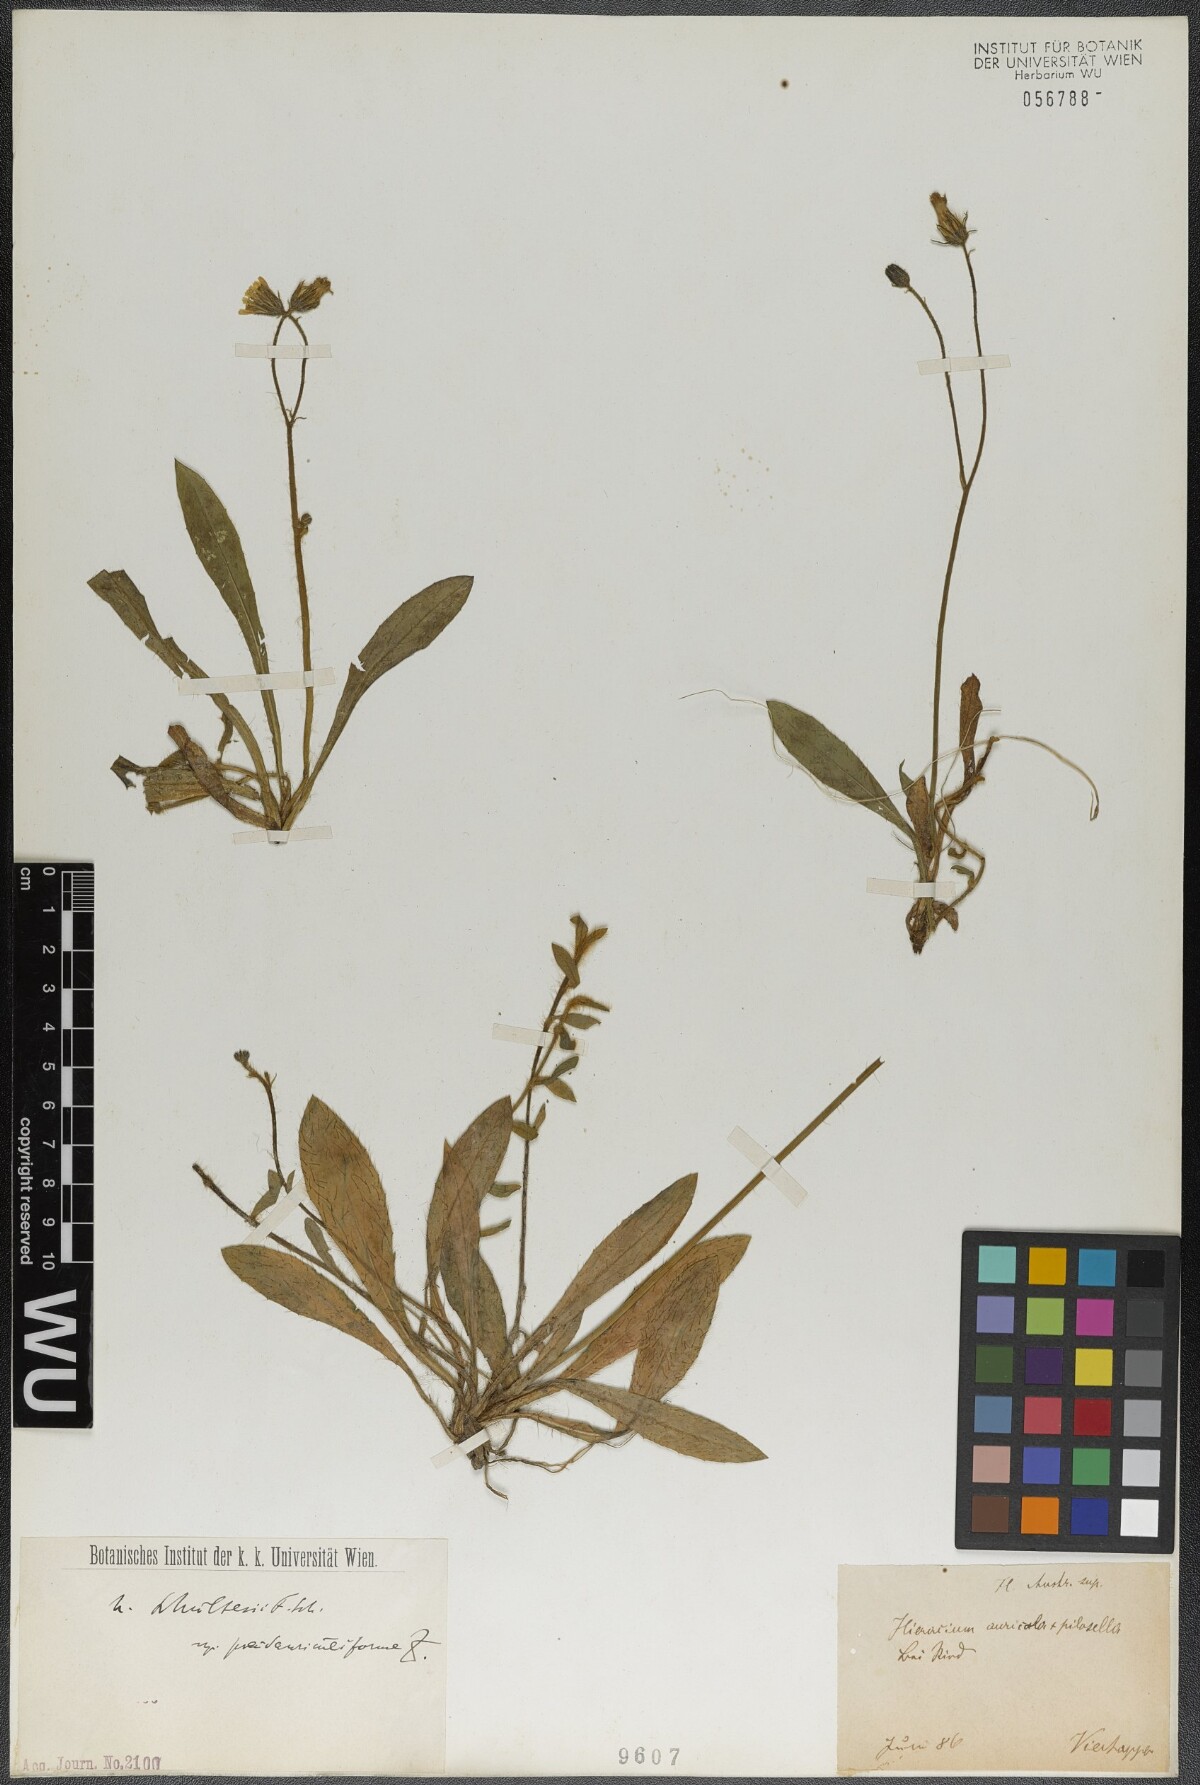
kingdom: Plantae
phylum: Tracheophyta
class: Magnoliopsida
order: Asterales
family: Asteraceae
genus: Pilosella
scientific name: Pilosella schultesii
